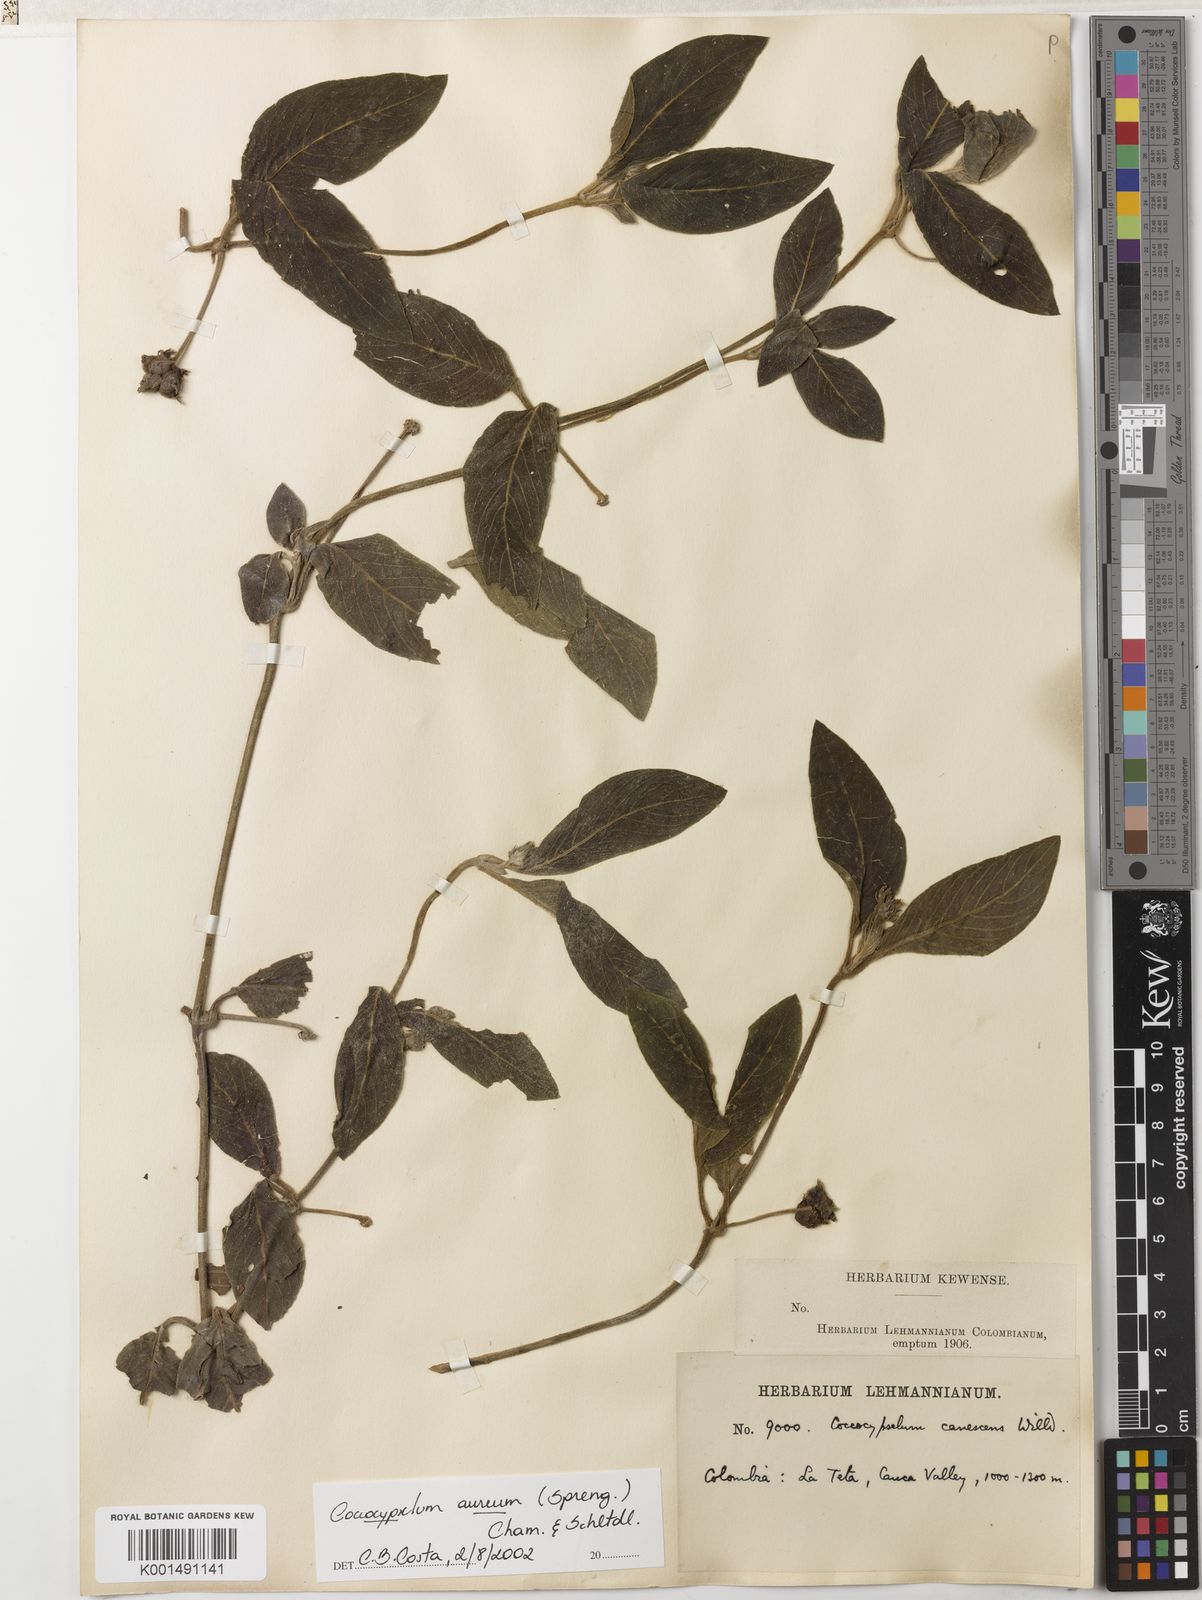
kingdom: Plantae
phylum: Tracheophyta
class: Magnoliopsida
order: Gentianales
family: Rubiaceae
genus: Coccocypselum
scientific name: Coccocypselum lanceolatum
